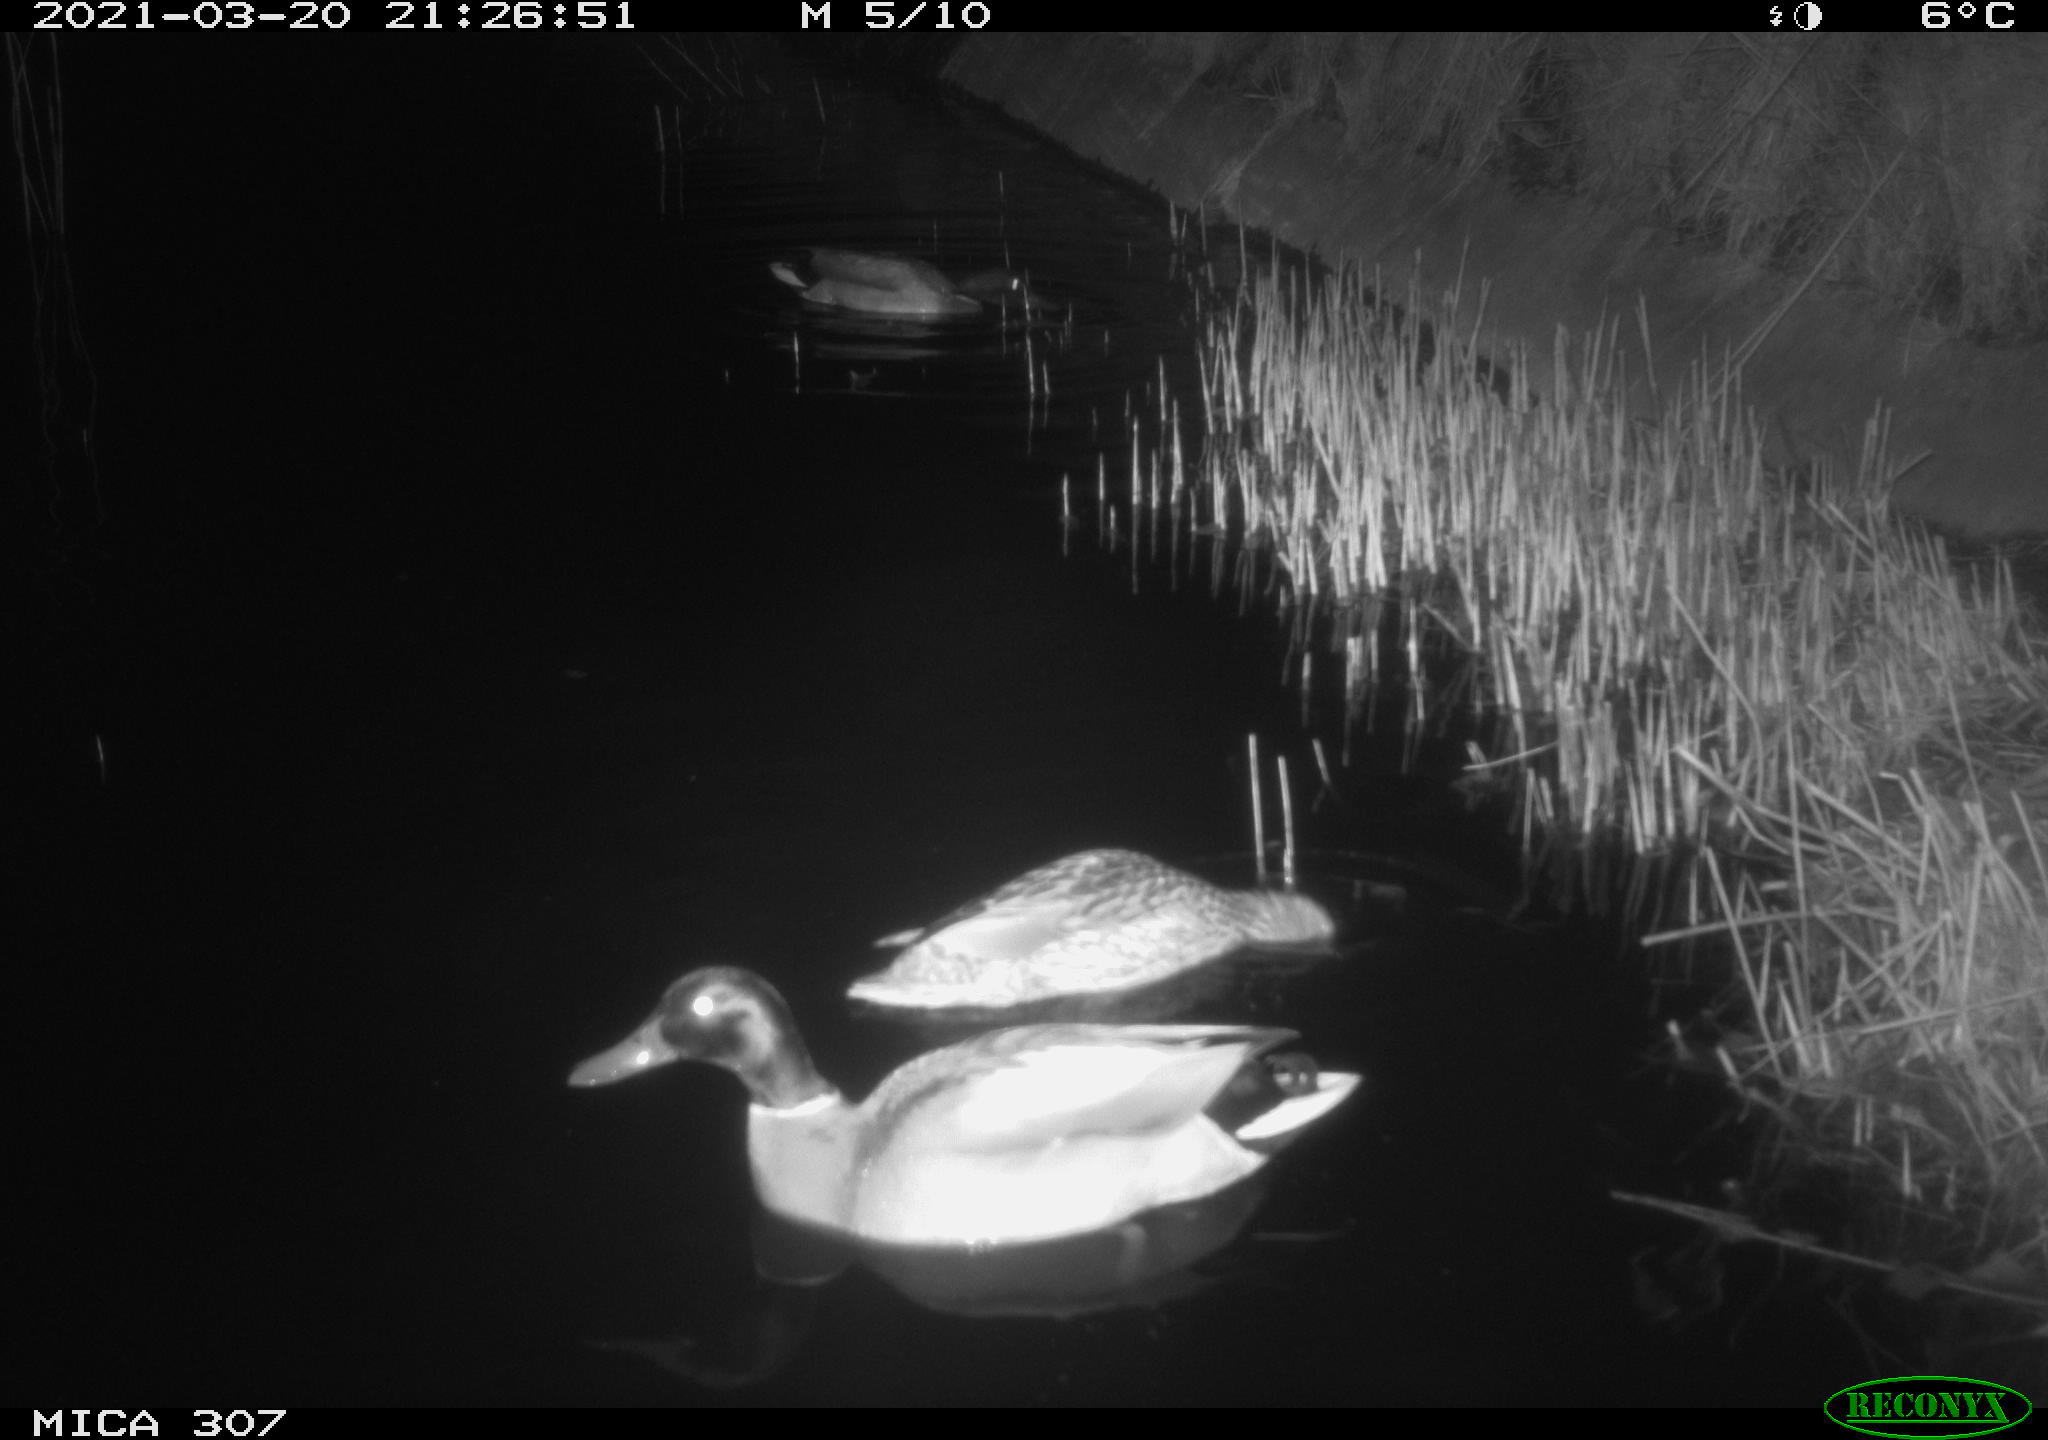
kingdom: Animalia
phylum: Chordata
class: Aves
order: Anseriformes
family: Anatidae
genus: Anas
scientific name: Anas platyrhynchos
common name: Mallard
